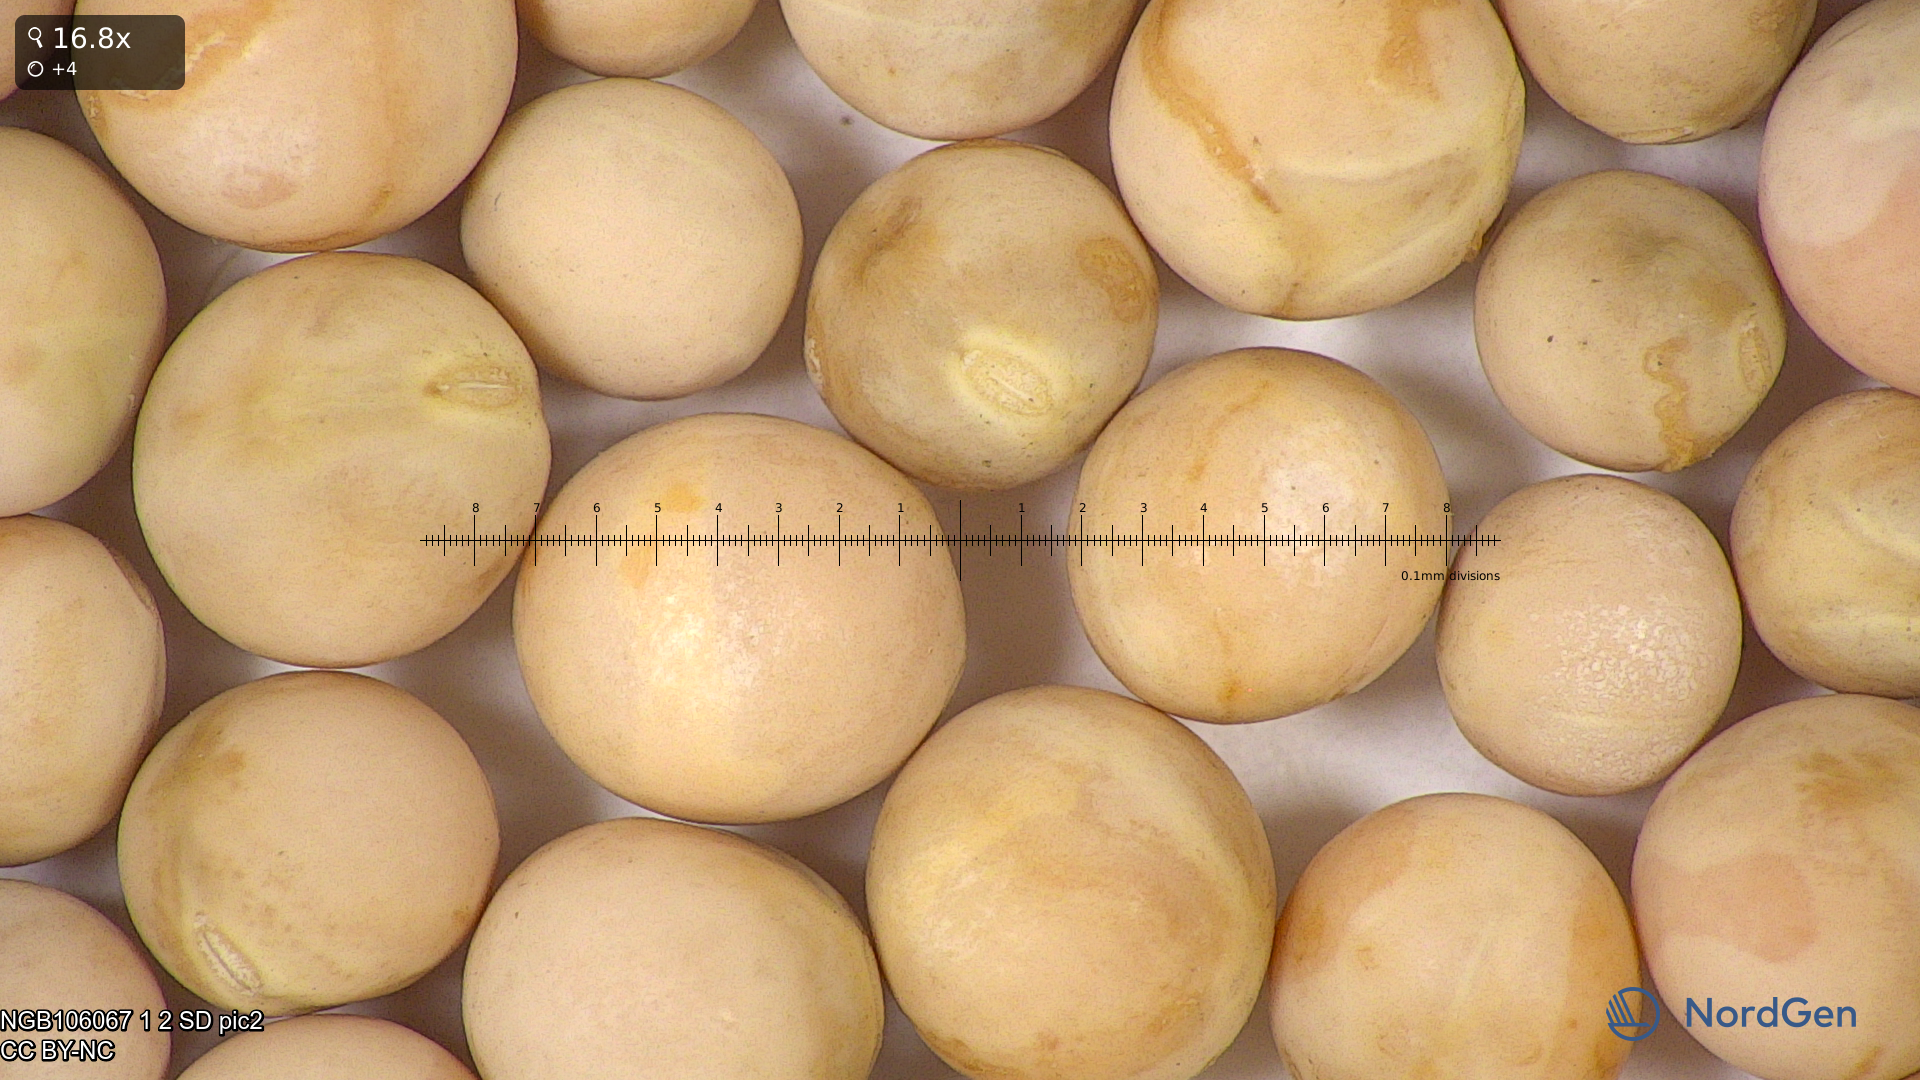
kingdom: Plantae
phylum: Tracheophyta
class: Magnoliopsida
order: Fabales
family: Fabaceae
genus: Lathyrus
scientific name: Lathyrus oleraceus
